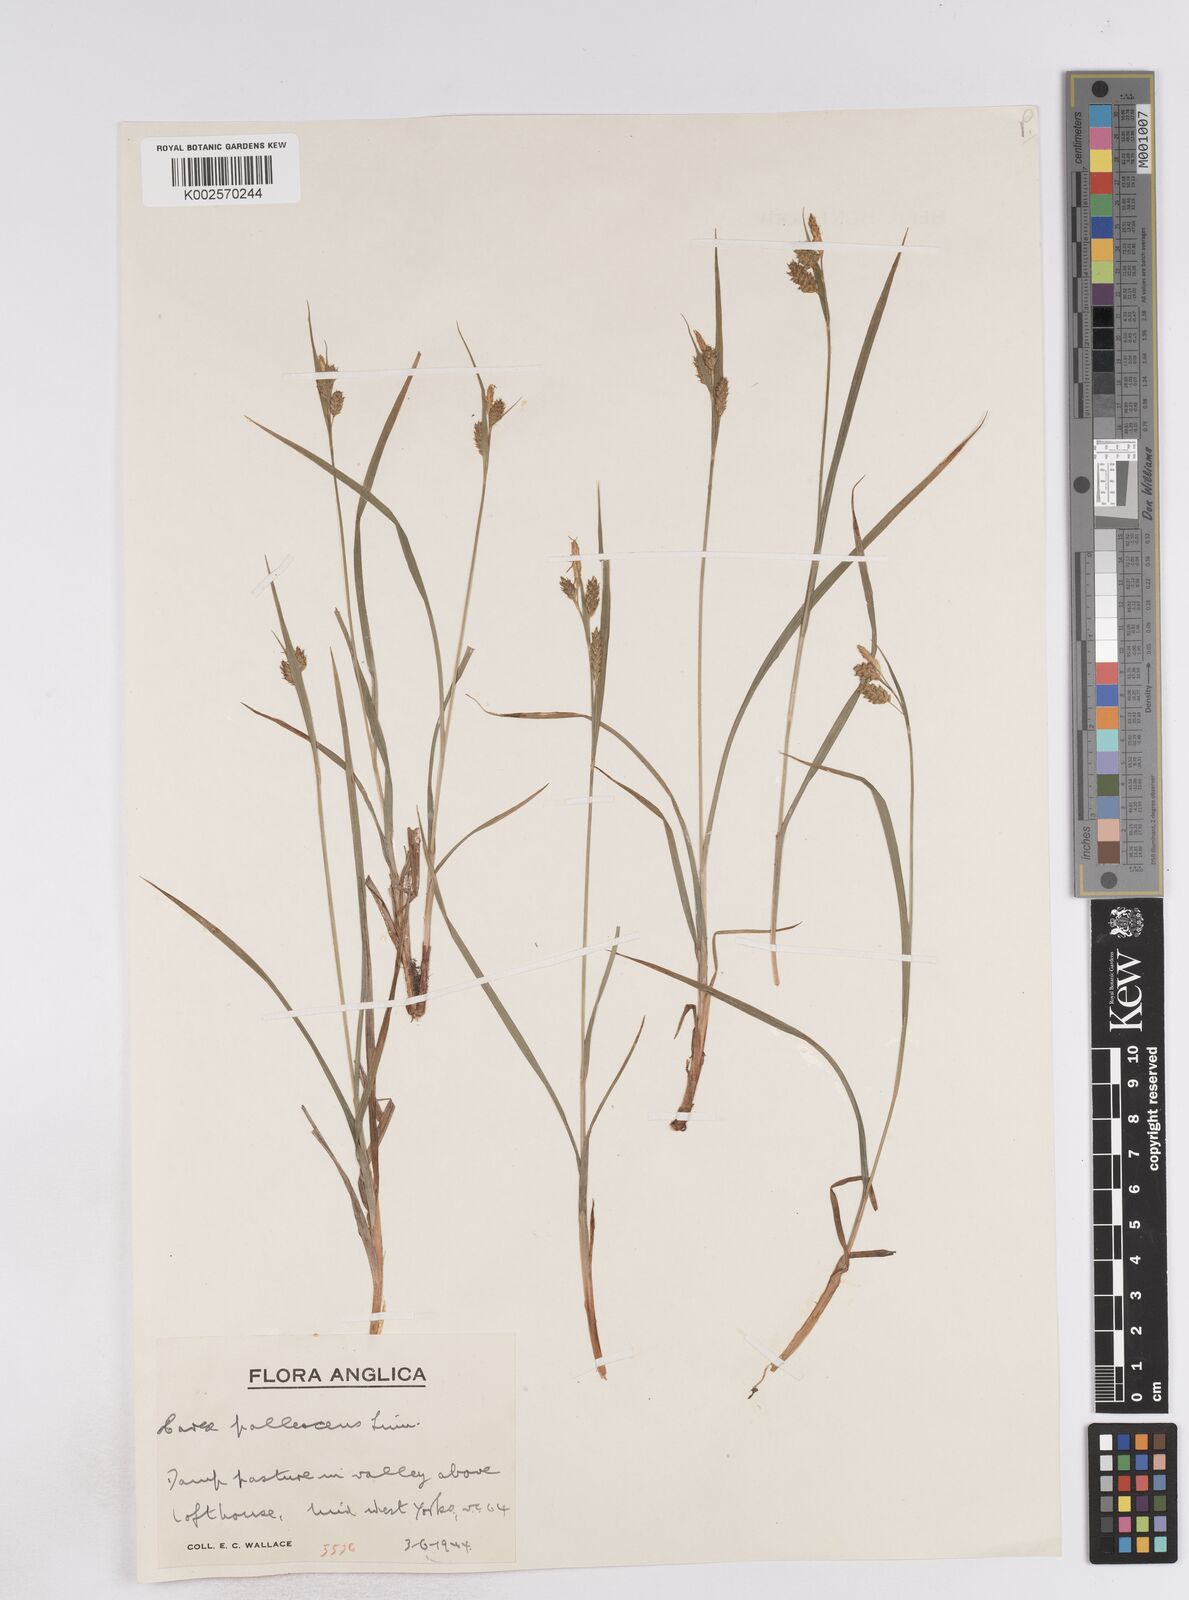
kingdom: Plantae
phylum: Tracheophyta
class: Liliopsida
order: Poales
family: Cyperaceae
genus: Carex
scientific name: Carex pallescens
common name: Pale sedge
